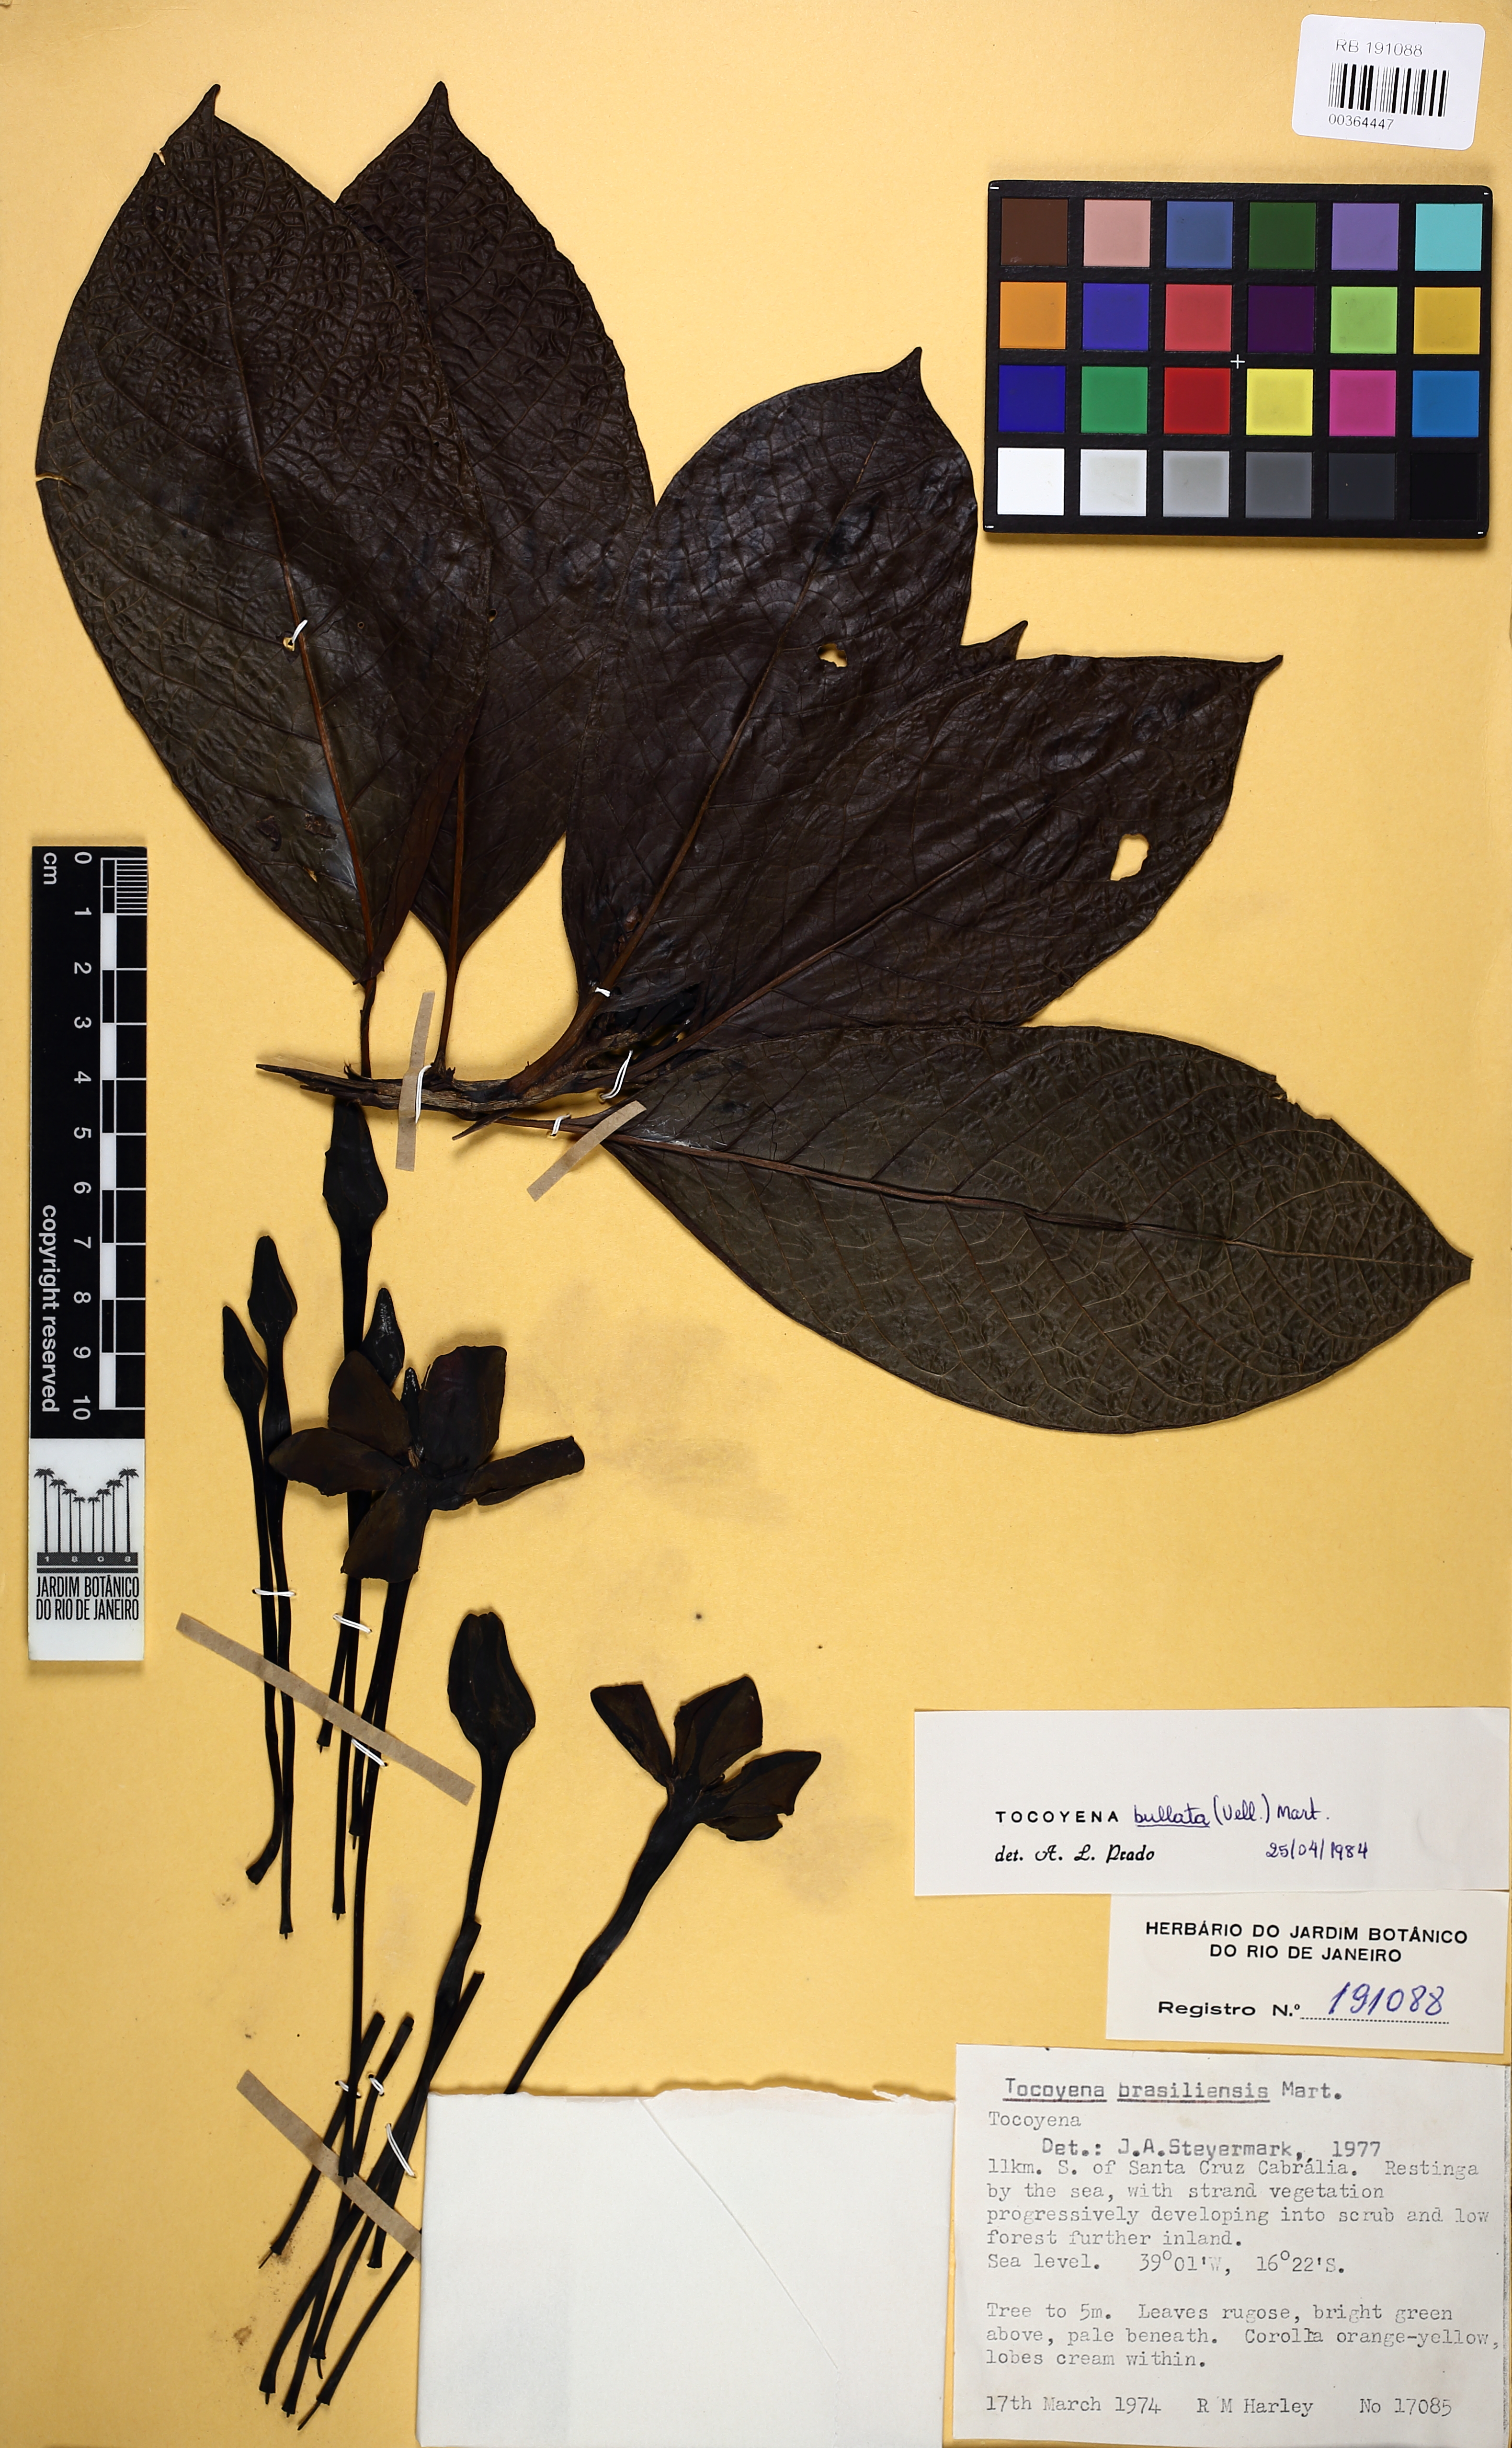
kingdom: Plantae
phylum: Tracheophyta
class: Magnoliopsida
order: Gentianales
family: Rubiaceae
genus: Tocoyena
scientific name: Tocoyena bullata
